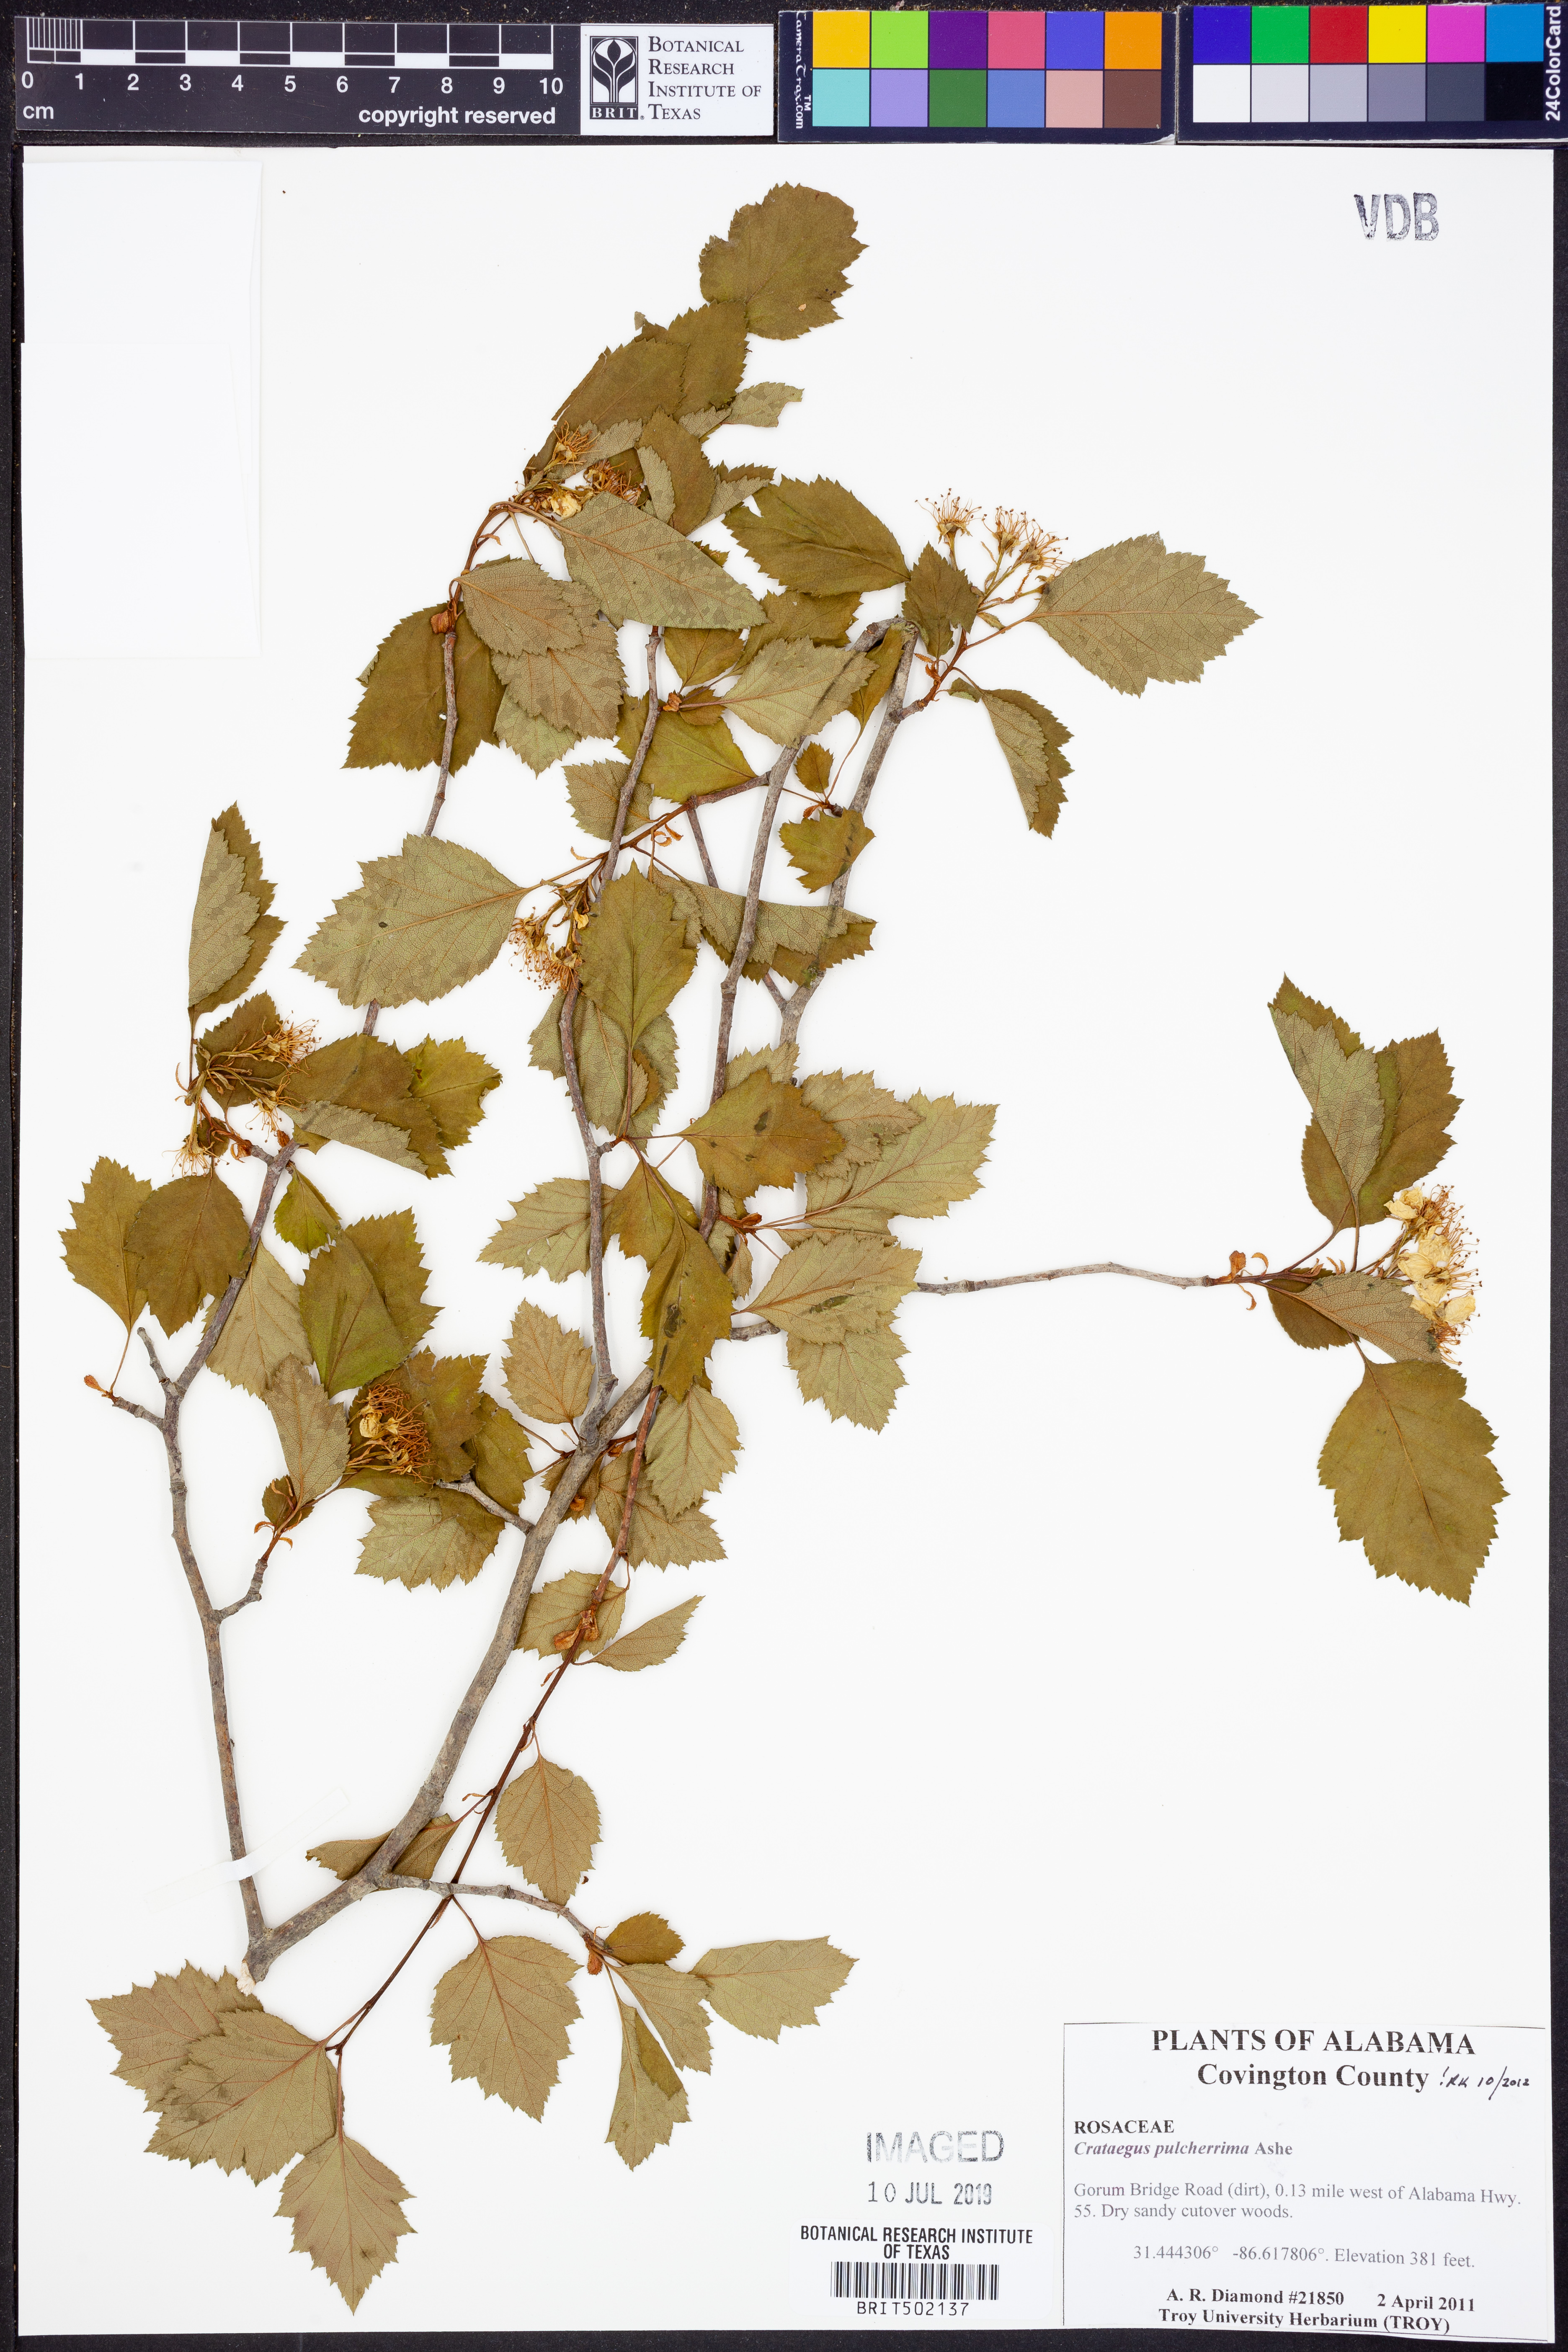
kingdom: Plantae
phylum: Tracheophyta
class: Magnoliopsida
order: Rosales
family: Rosaceae
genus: Crataegus
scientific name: Crataegus pulcherrima
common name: Beautiful hawthorn
